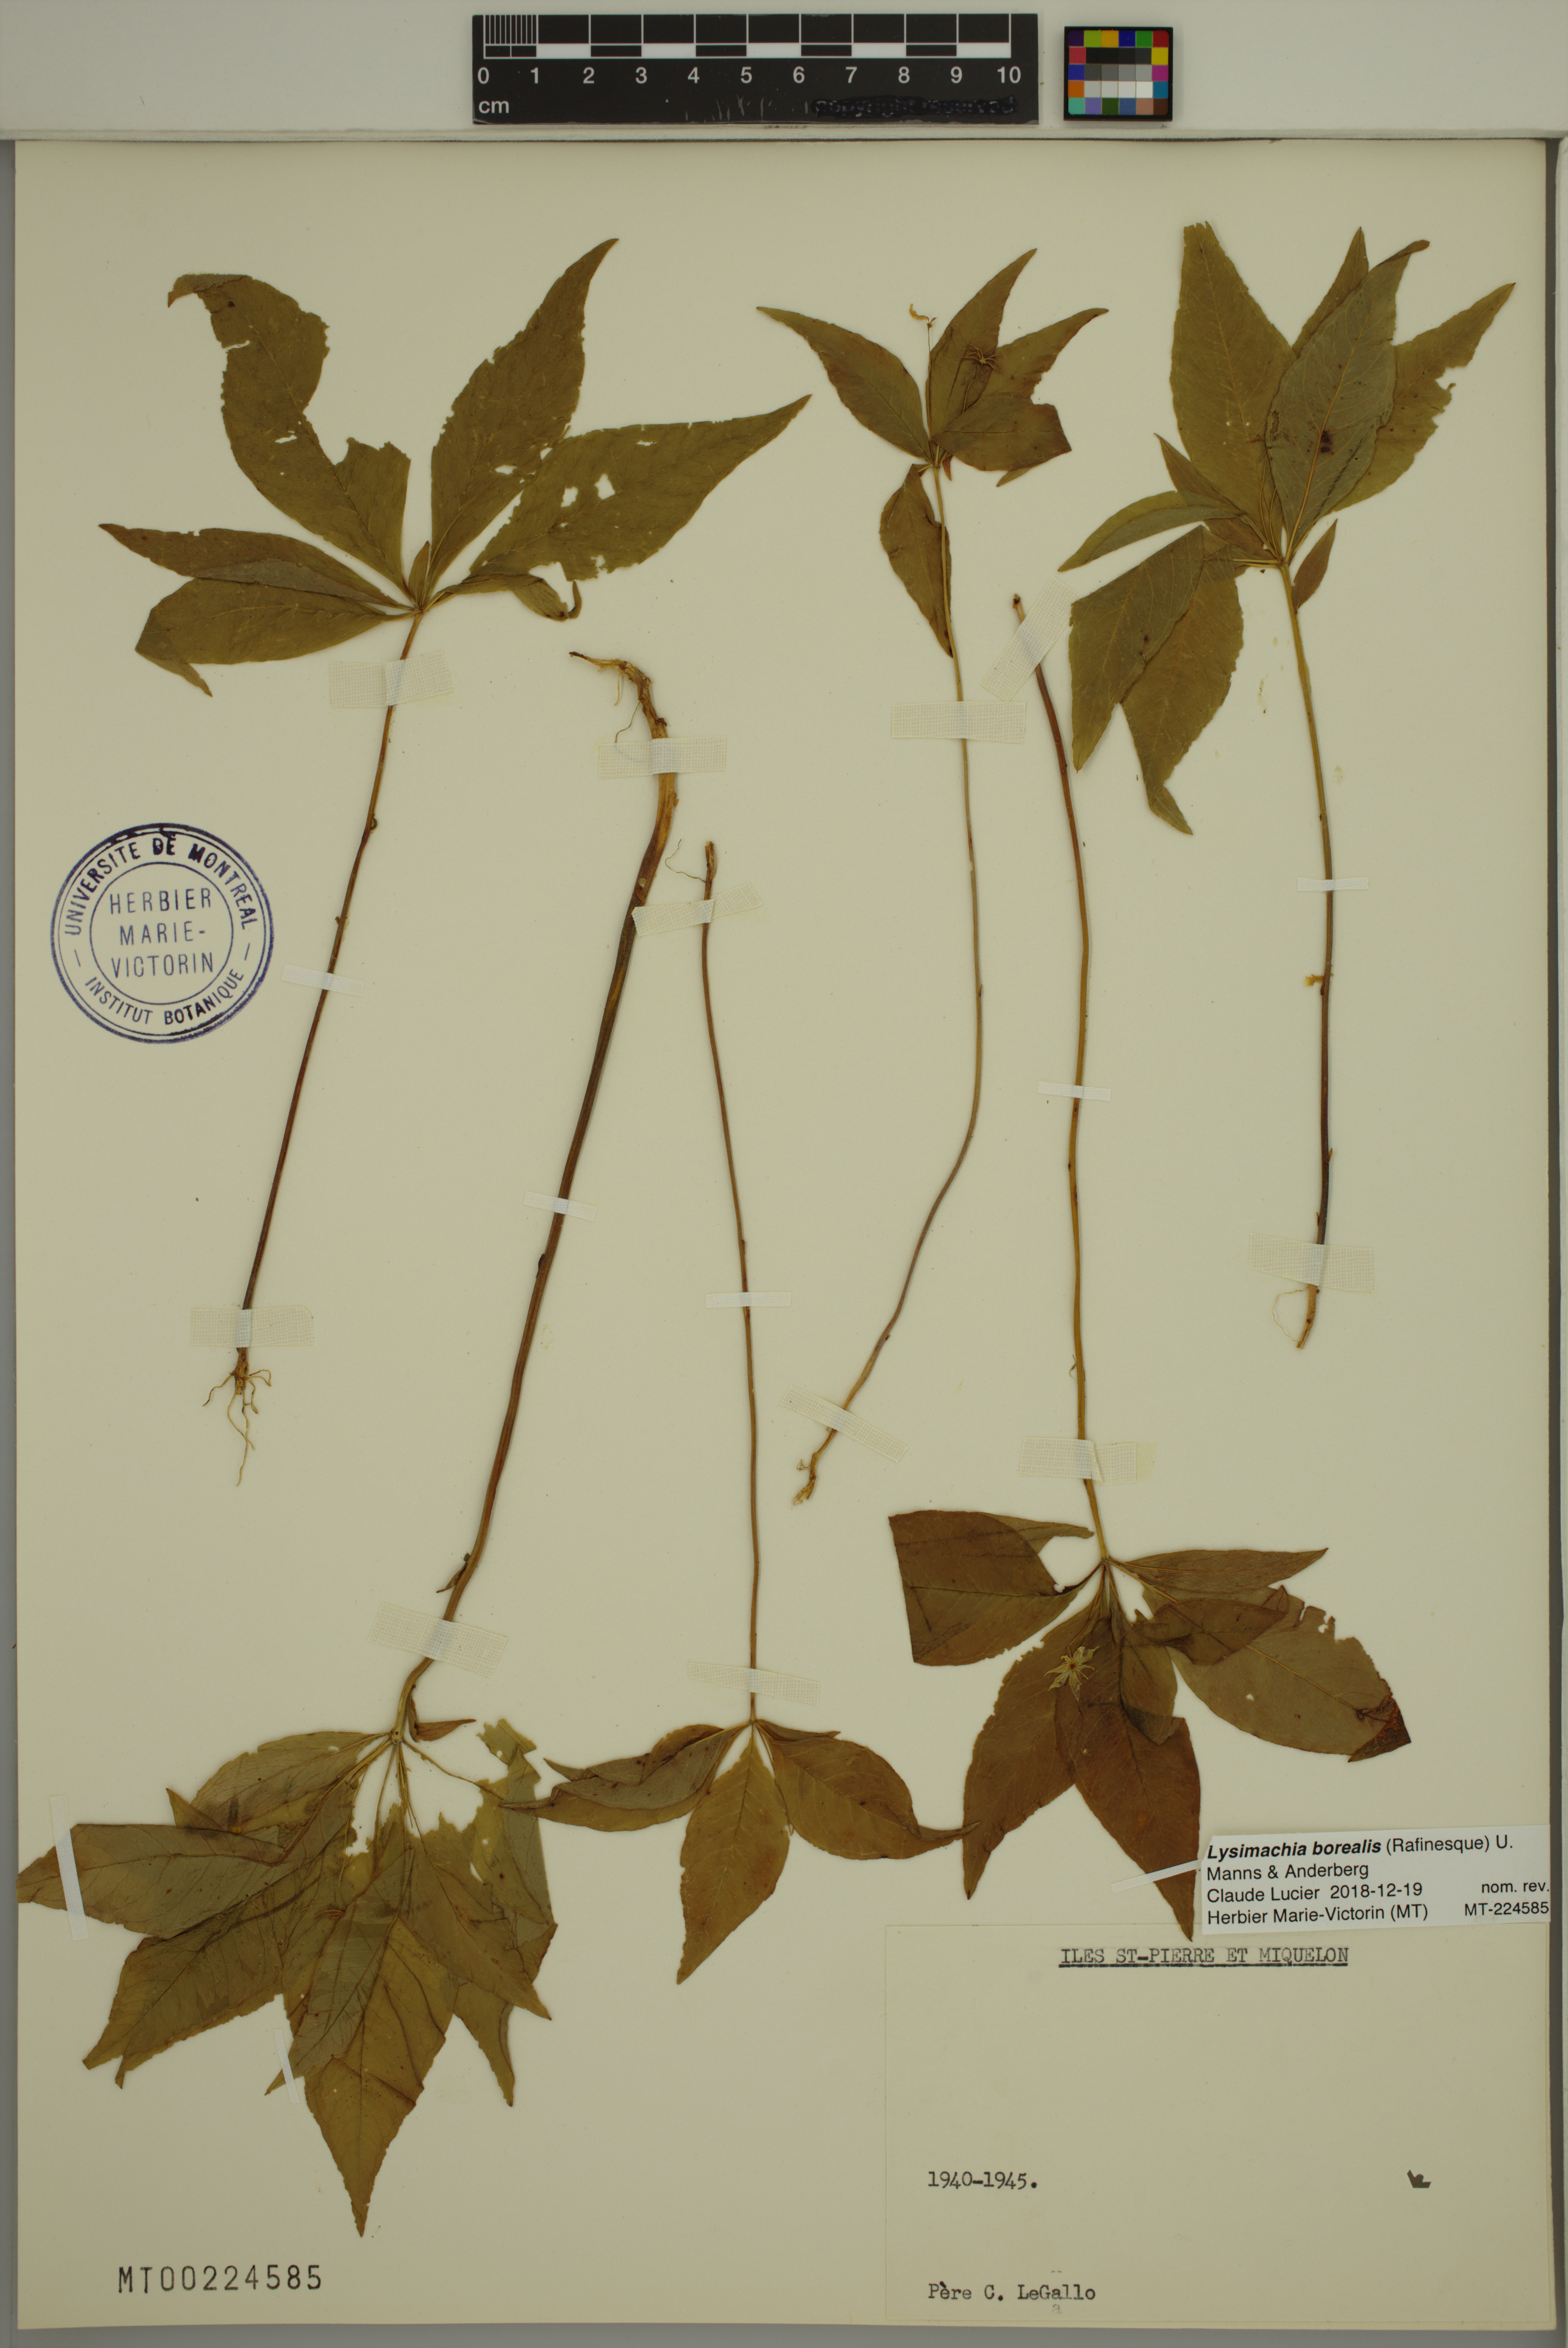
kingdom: Plantae
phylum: Tracheophyta
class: Magnoliopsida
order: Ericales
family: Primulaceae
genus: Lysimachia
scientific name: Lysimachia borealis
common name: American starflower
